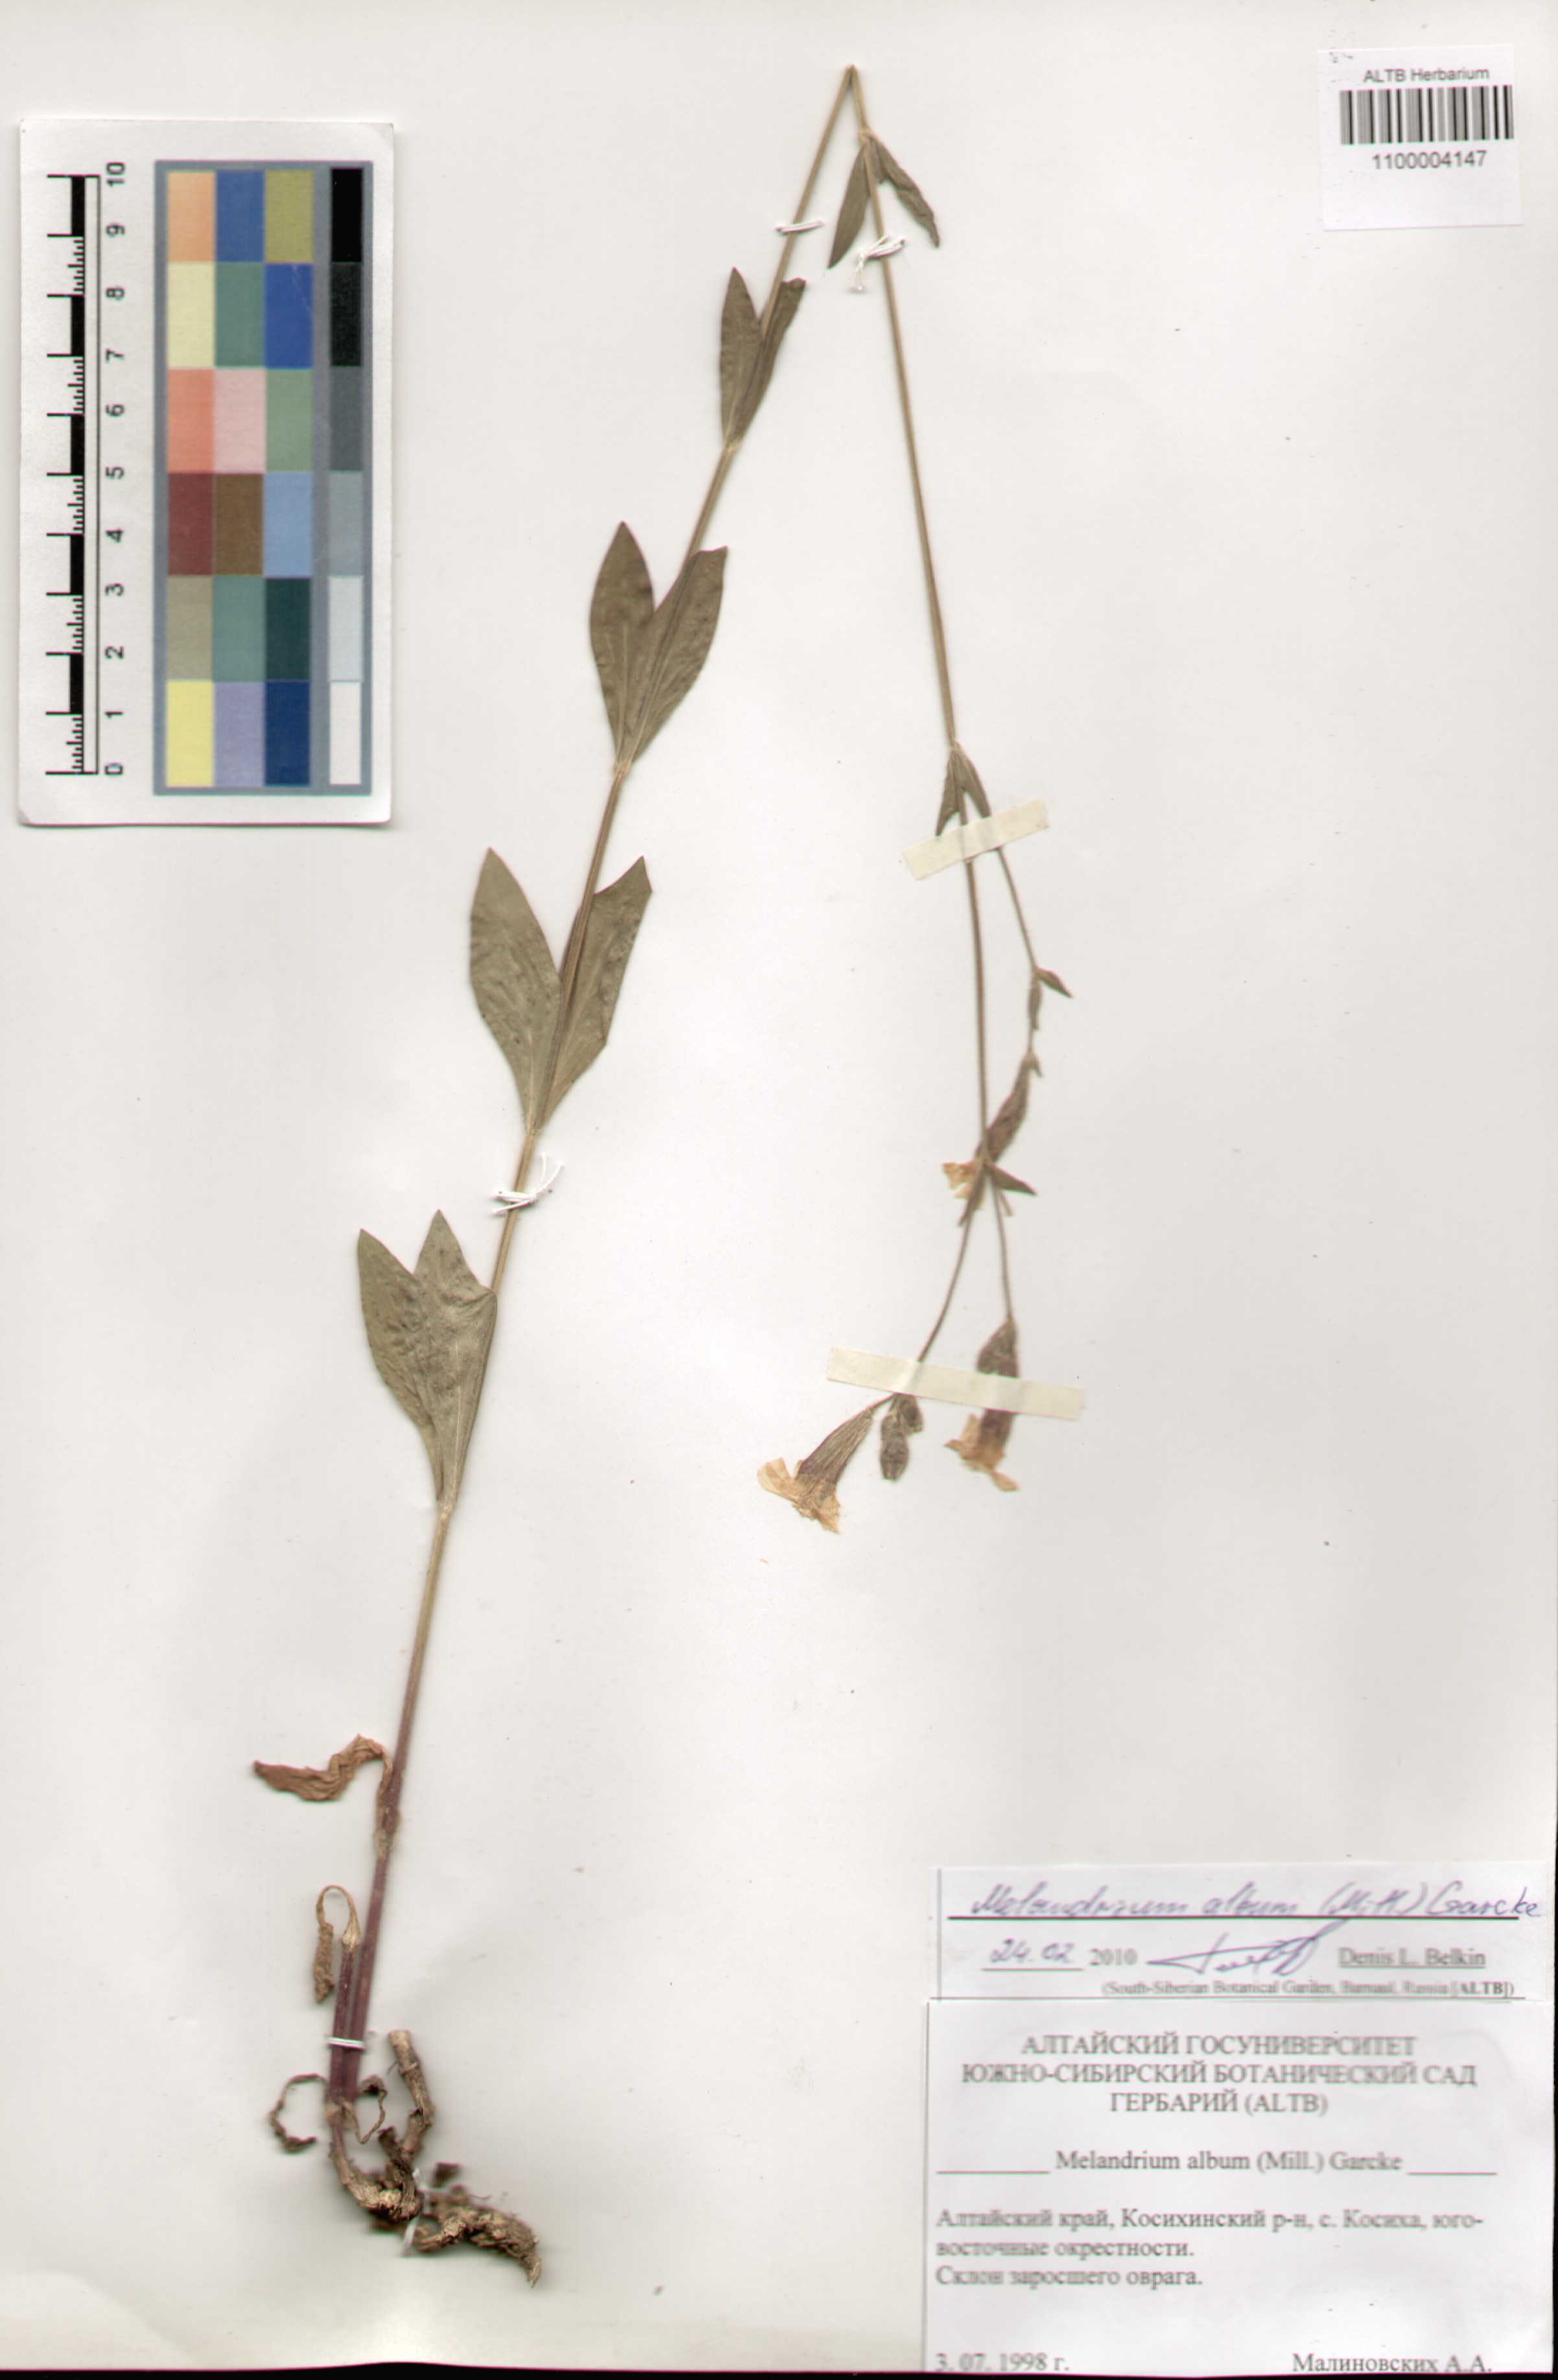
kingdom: Plantae
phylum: Tracheophyta
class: Magnoliopsida
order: Caryophyllales
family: Caryophyllaceae
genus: Silene
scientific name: Silene latifolia
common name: White campion
